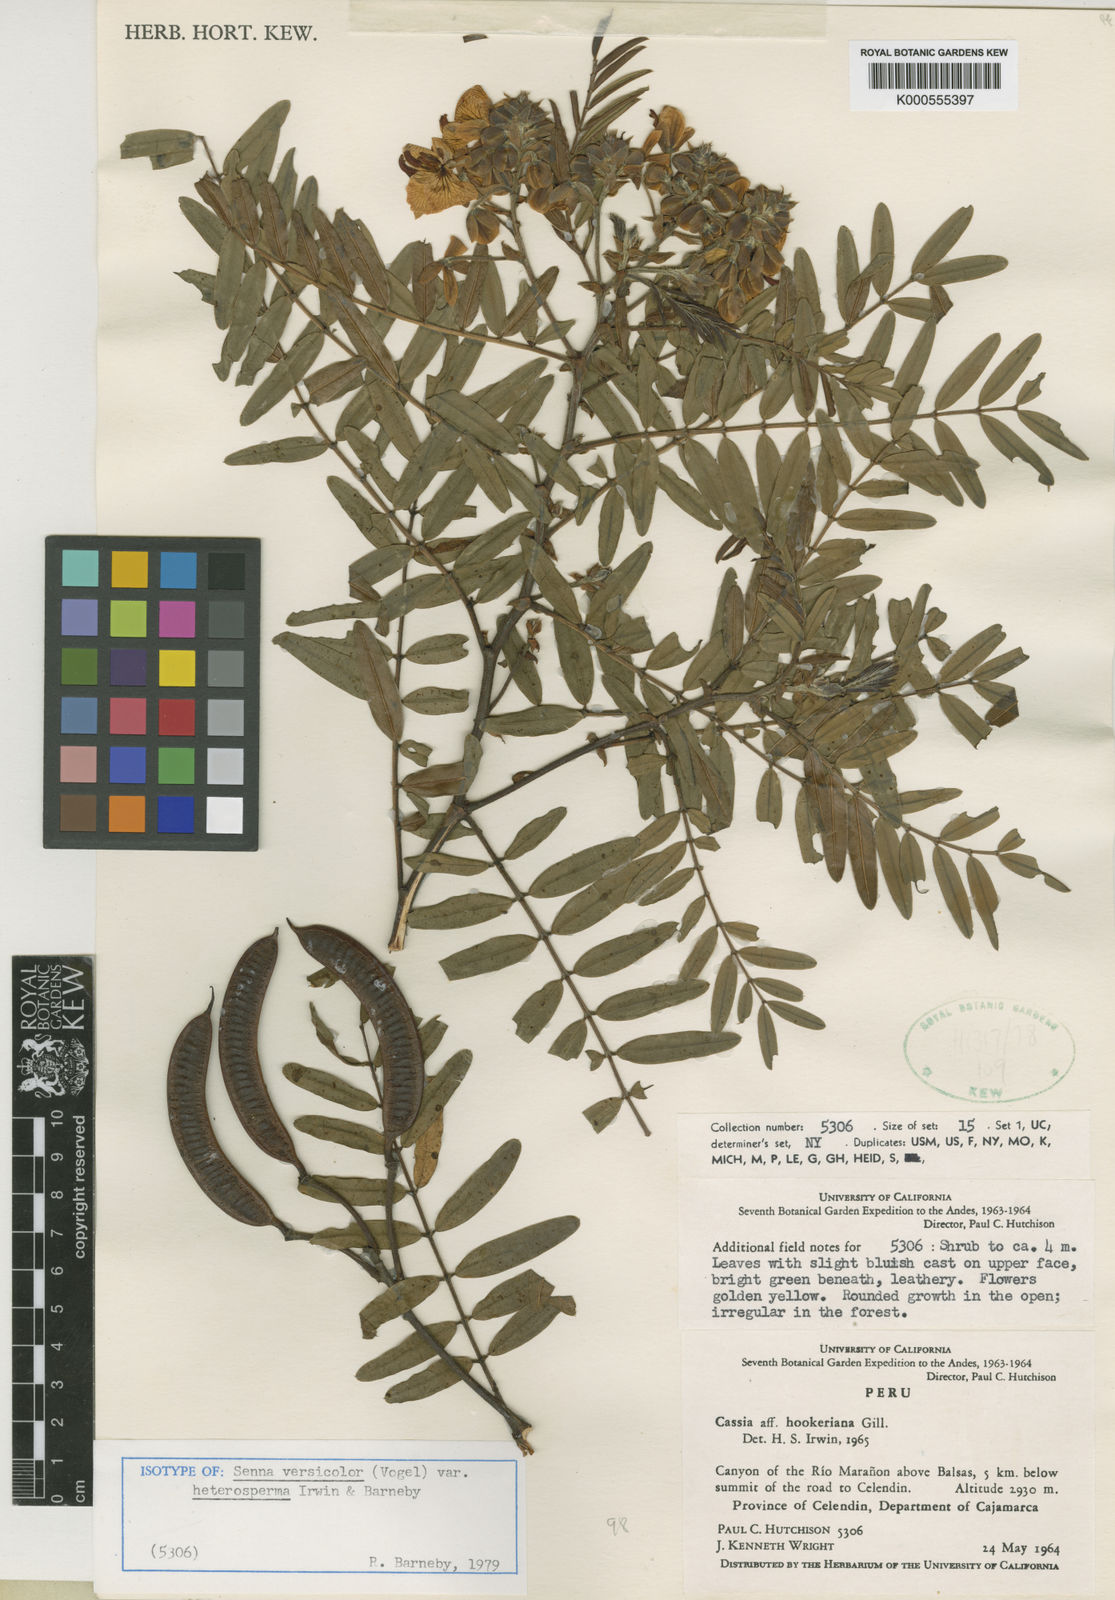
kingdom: Plantae
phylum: Tracheophyta
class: Magnoliopsida
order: Fabales
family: Fabaceae
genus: Senna
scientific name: Senna versicolor
